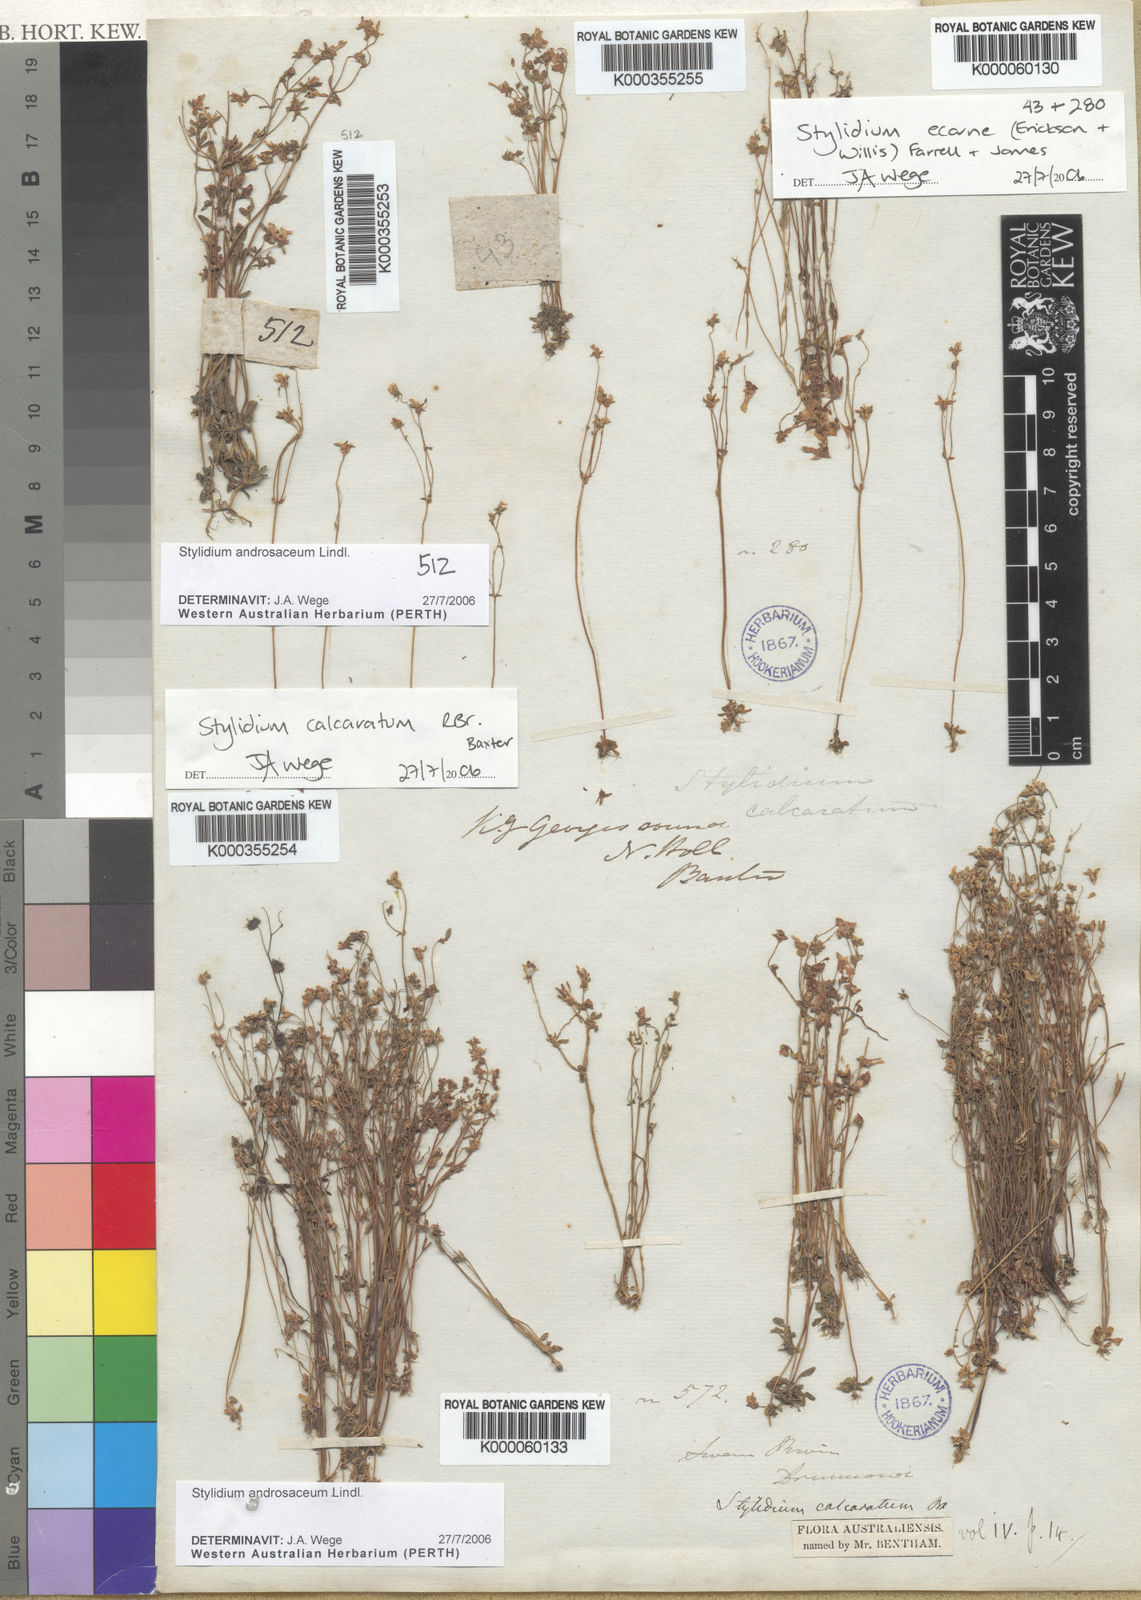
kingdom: Plantae
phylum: Tracheophyta
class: Magnoliopsida
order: Asterales
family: Stylidiaceae
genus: Stylidium
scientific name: Stylidium
